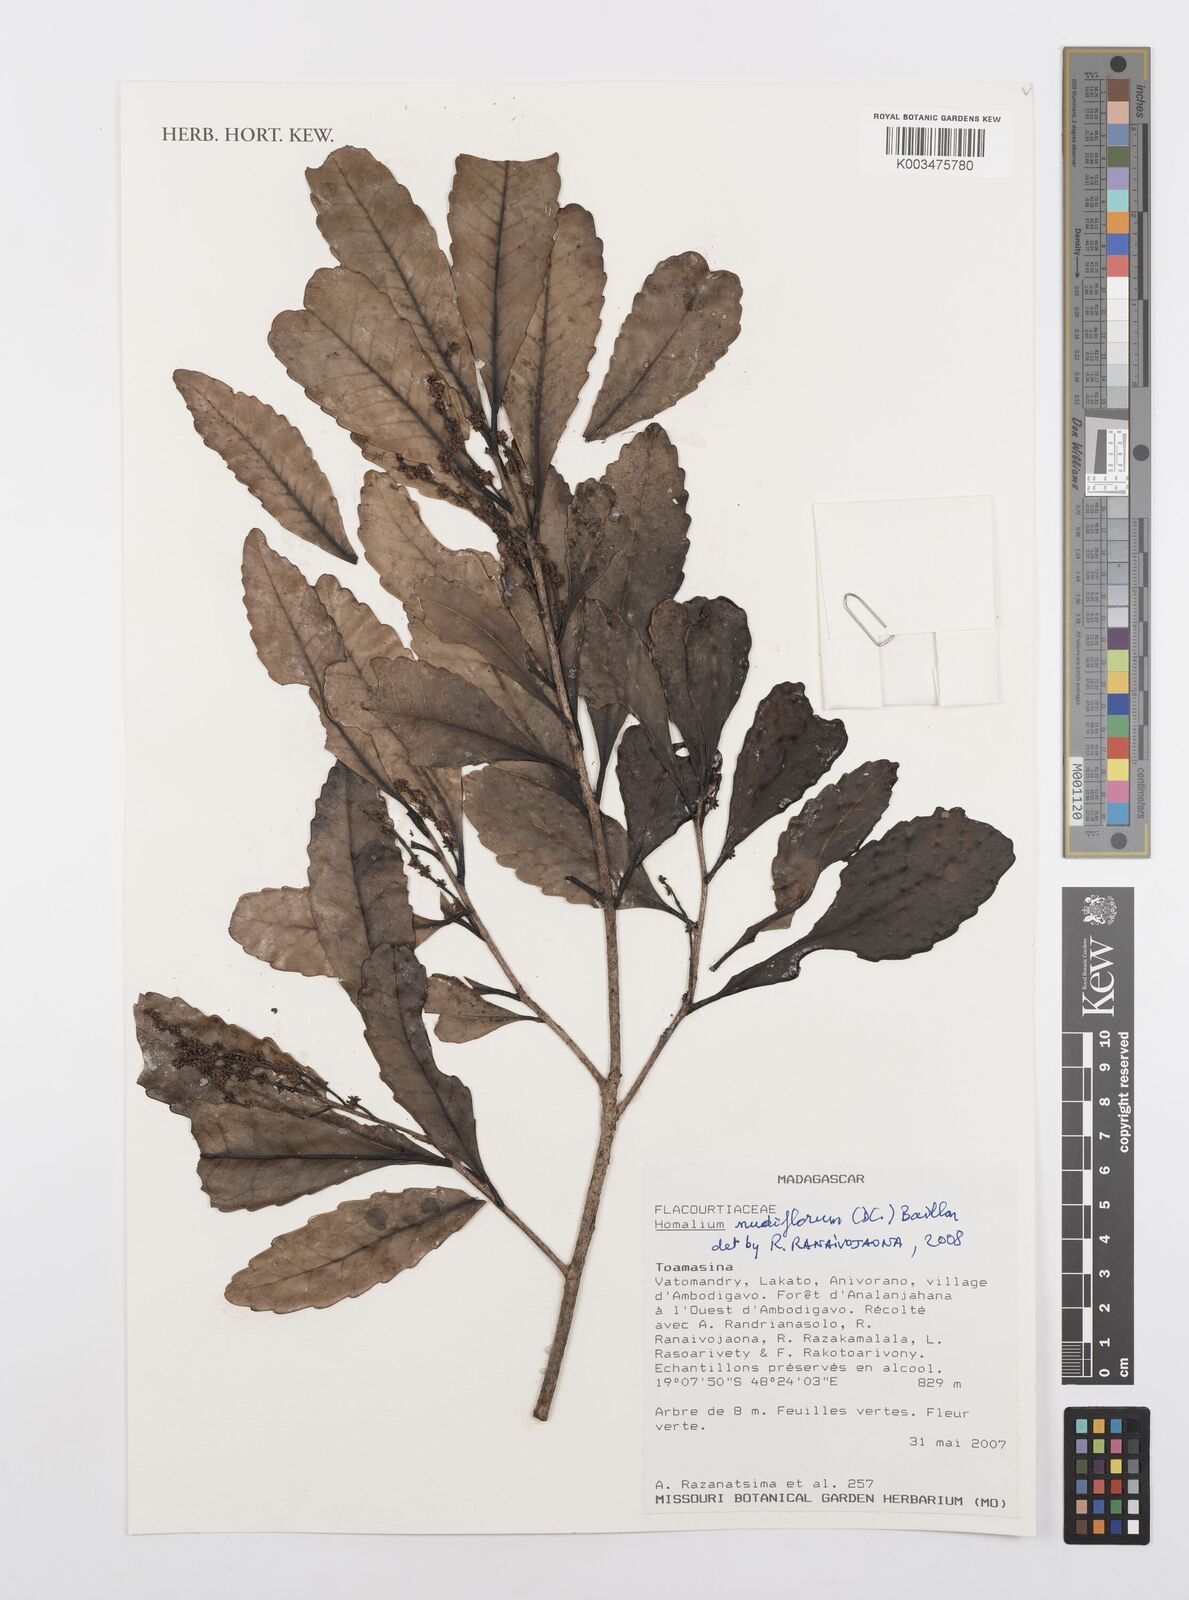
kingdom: Plantae
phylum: Tracheophyta
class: Magnoliopsida
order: Malpighiales
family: Salicaceae
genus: Homalium
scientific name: Homalium nudiflorum
